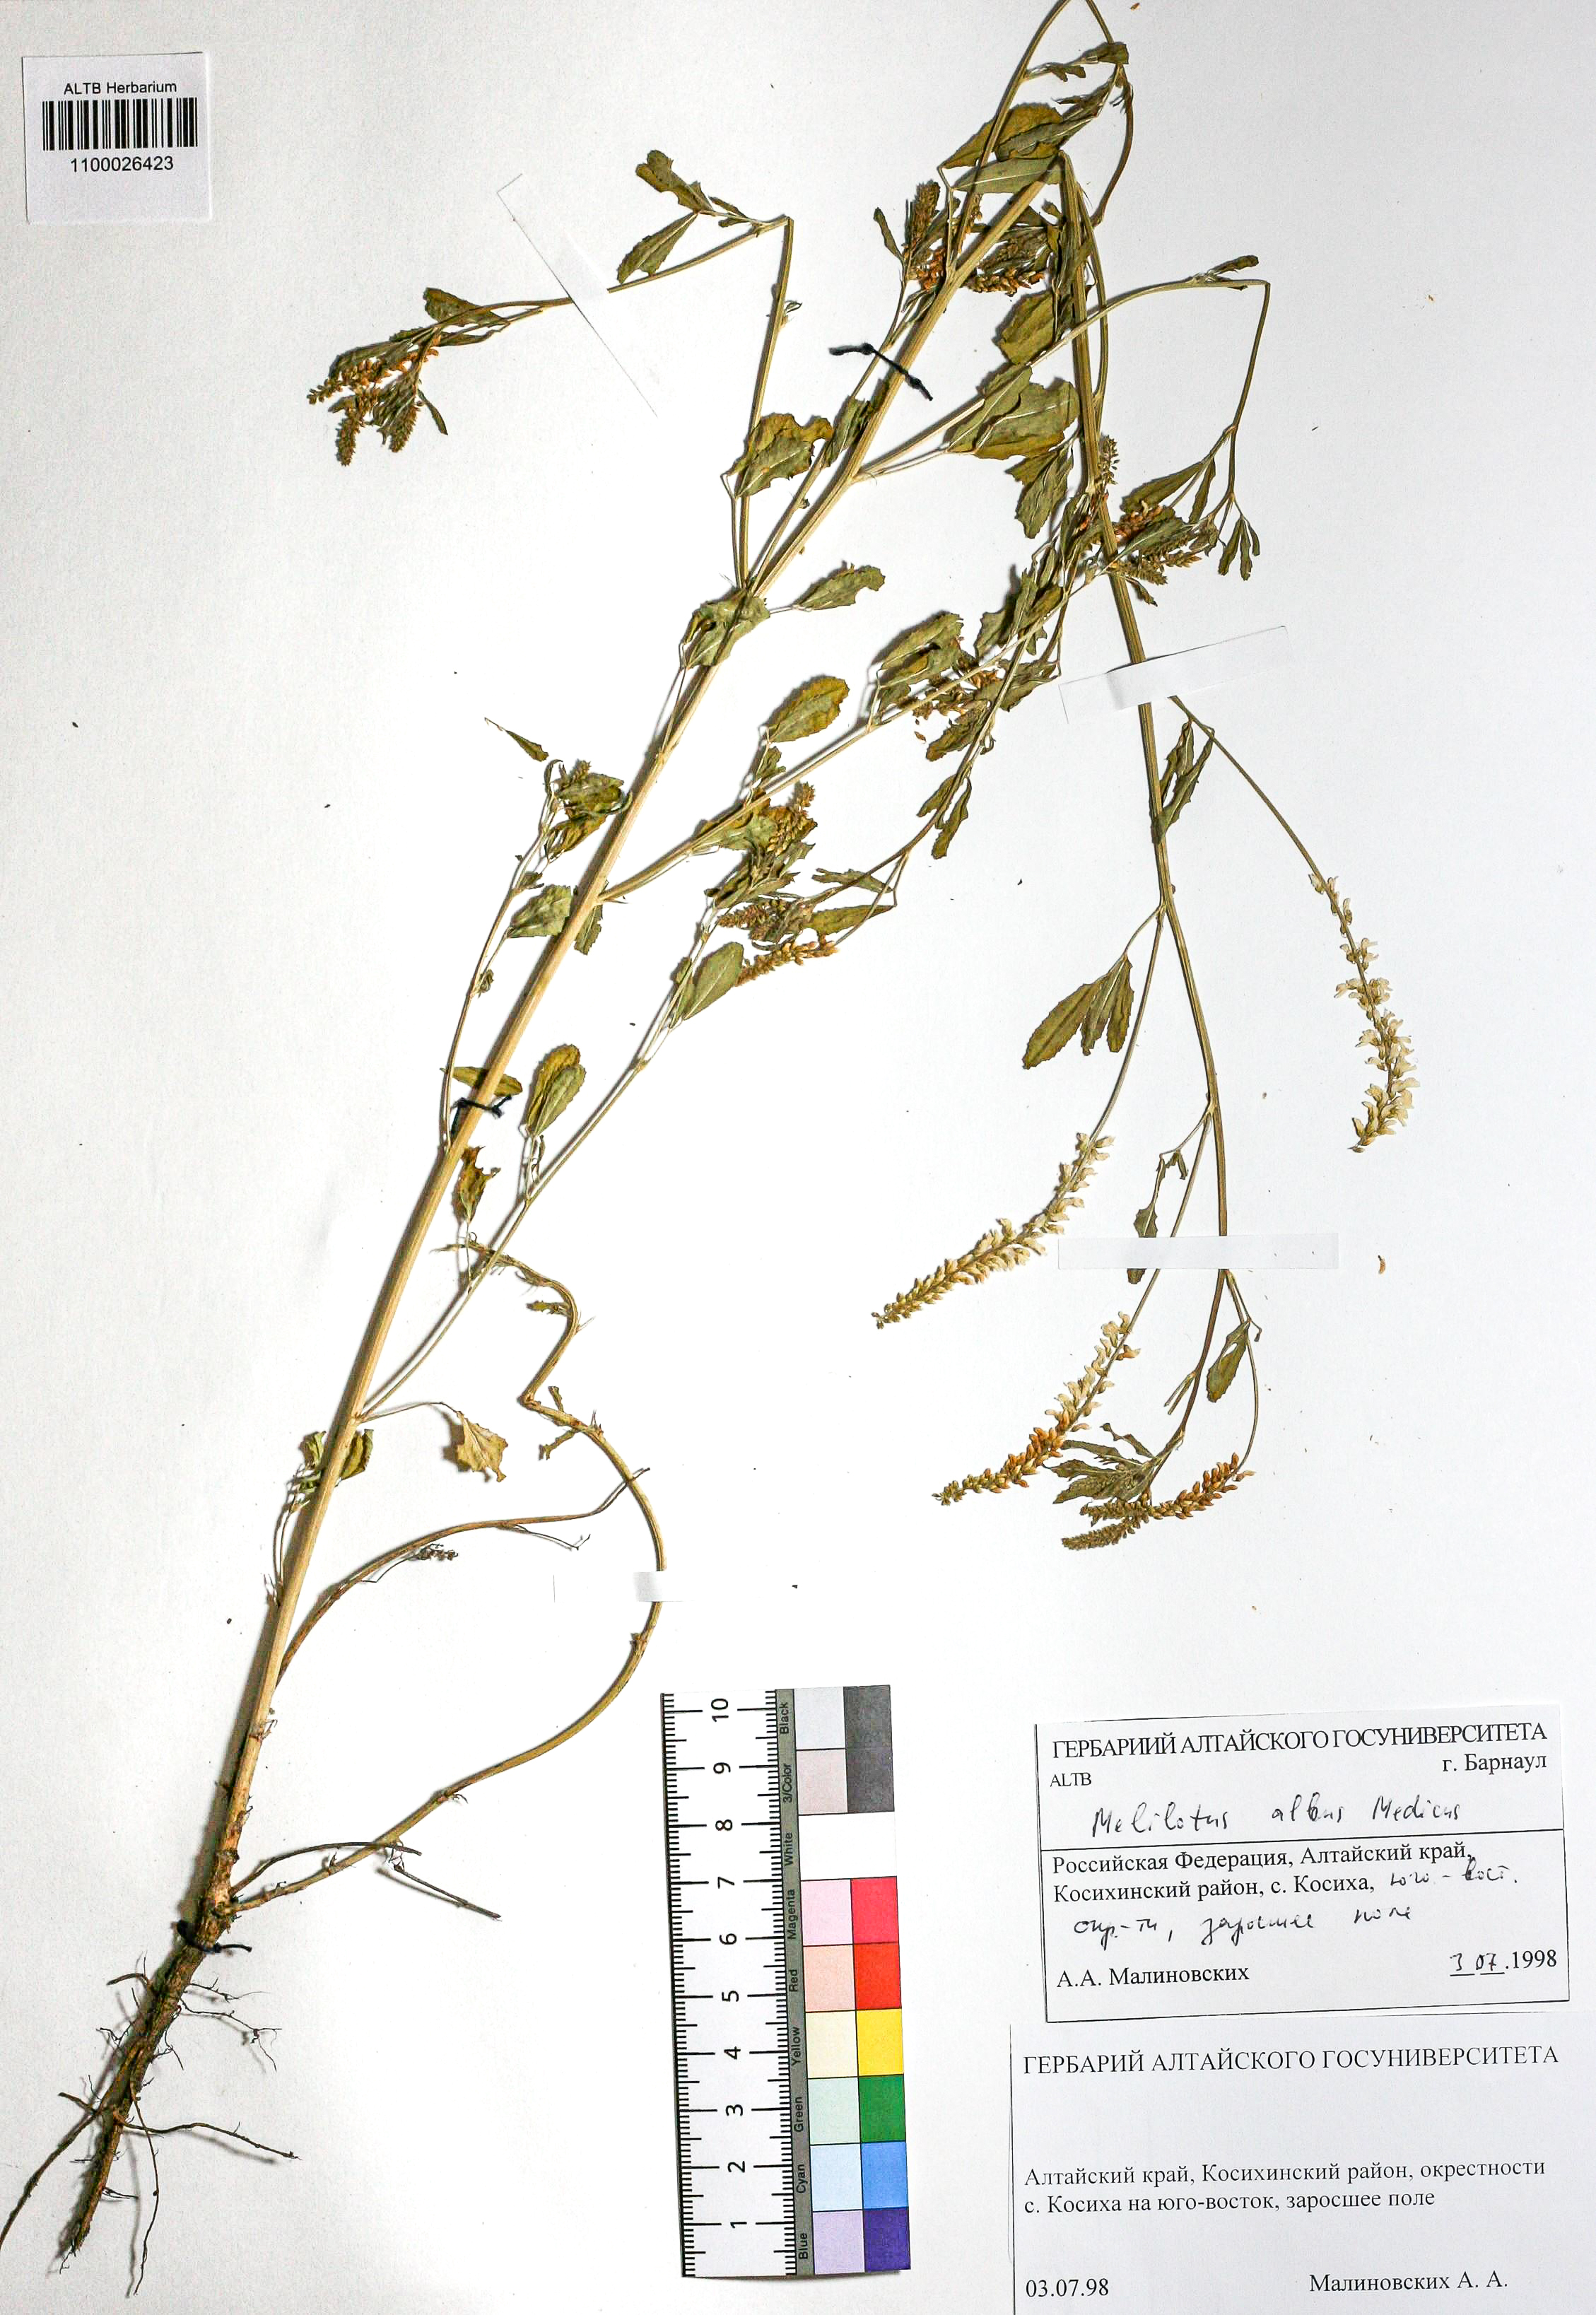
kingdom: Plantae
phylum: Tracheophyta
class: Magnoliopsida
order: Fabales
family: Fabaceae
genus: Melilotus
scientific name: Melilotus albus
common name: White melilot
